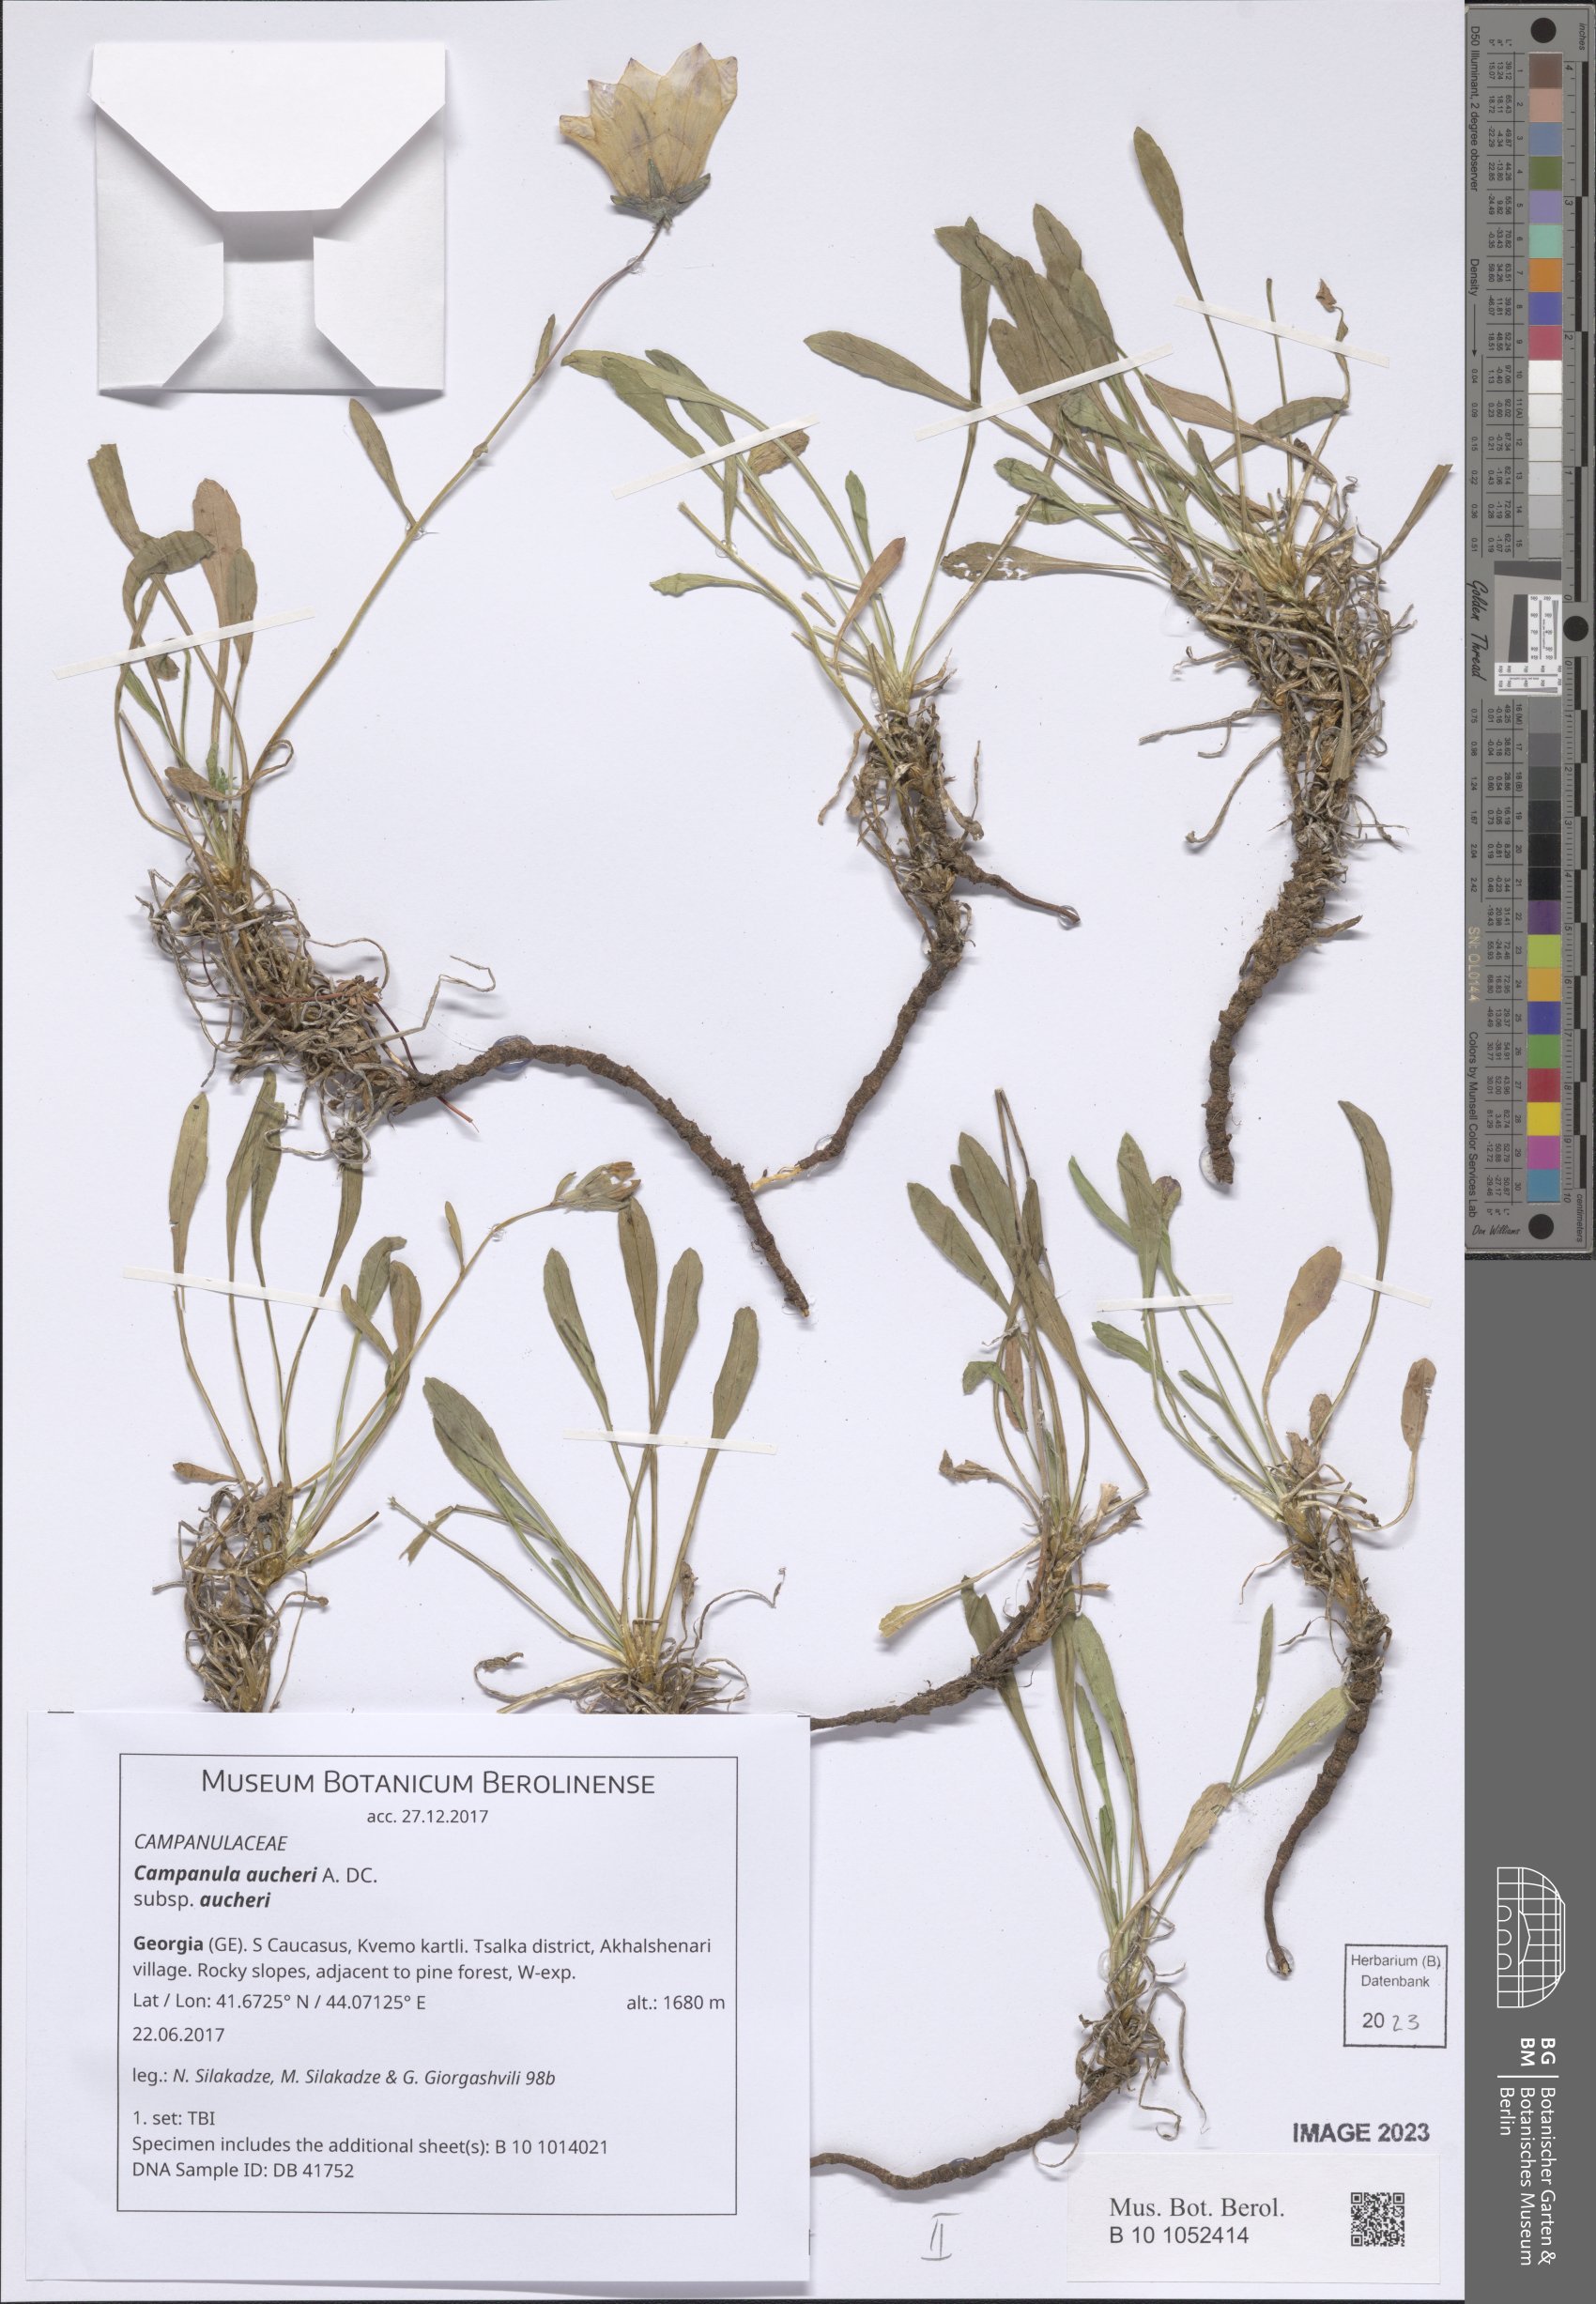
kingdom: Plantae
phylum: Tracheophyta
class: Magnoliopsida
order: Asterales
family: Campanulaceae
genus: Campanula
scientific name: Campanula saxifraga
